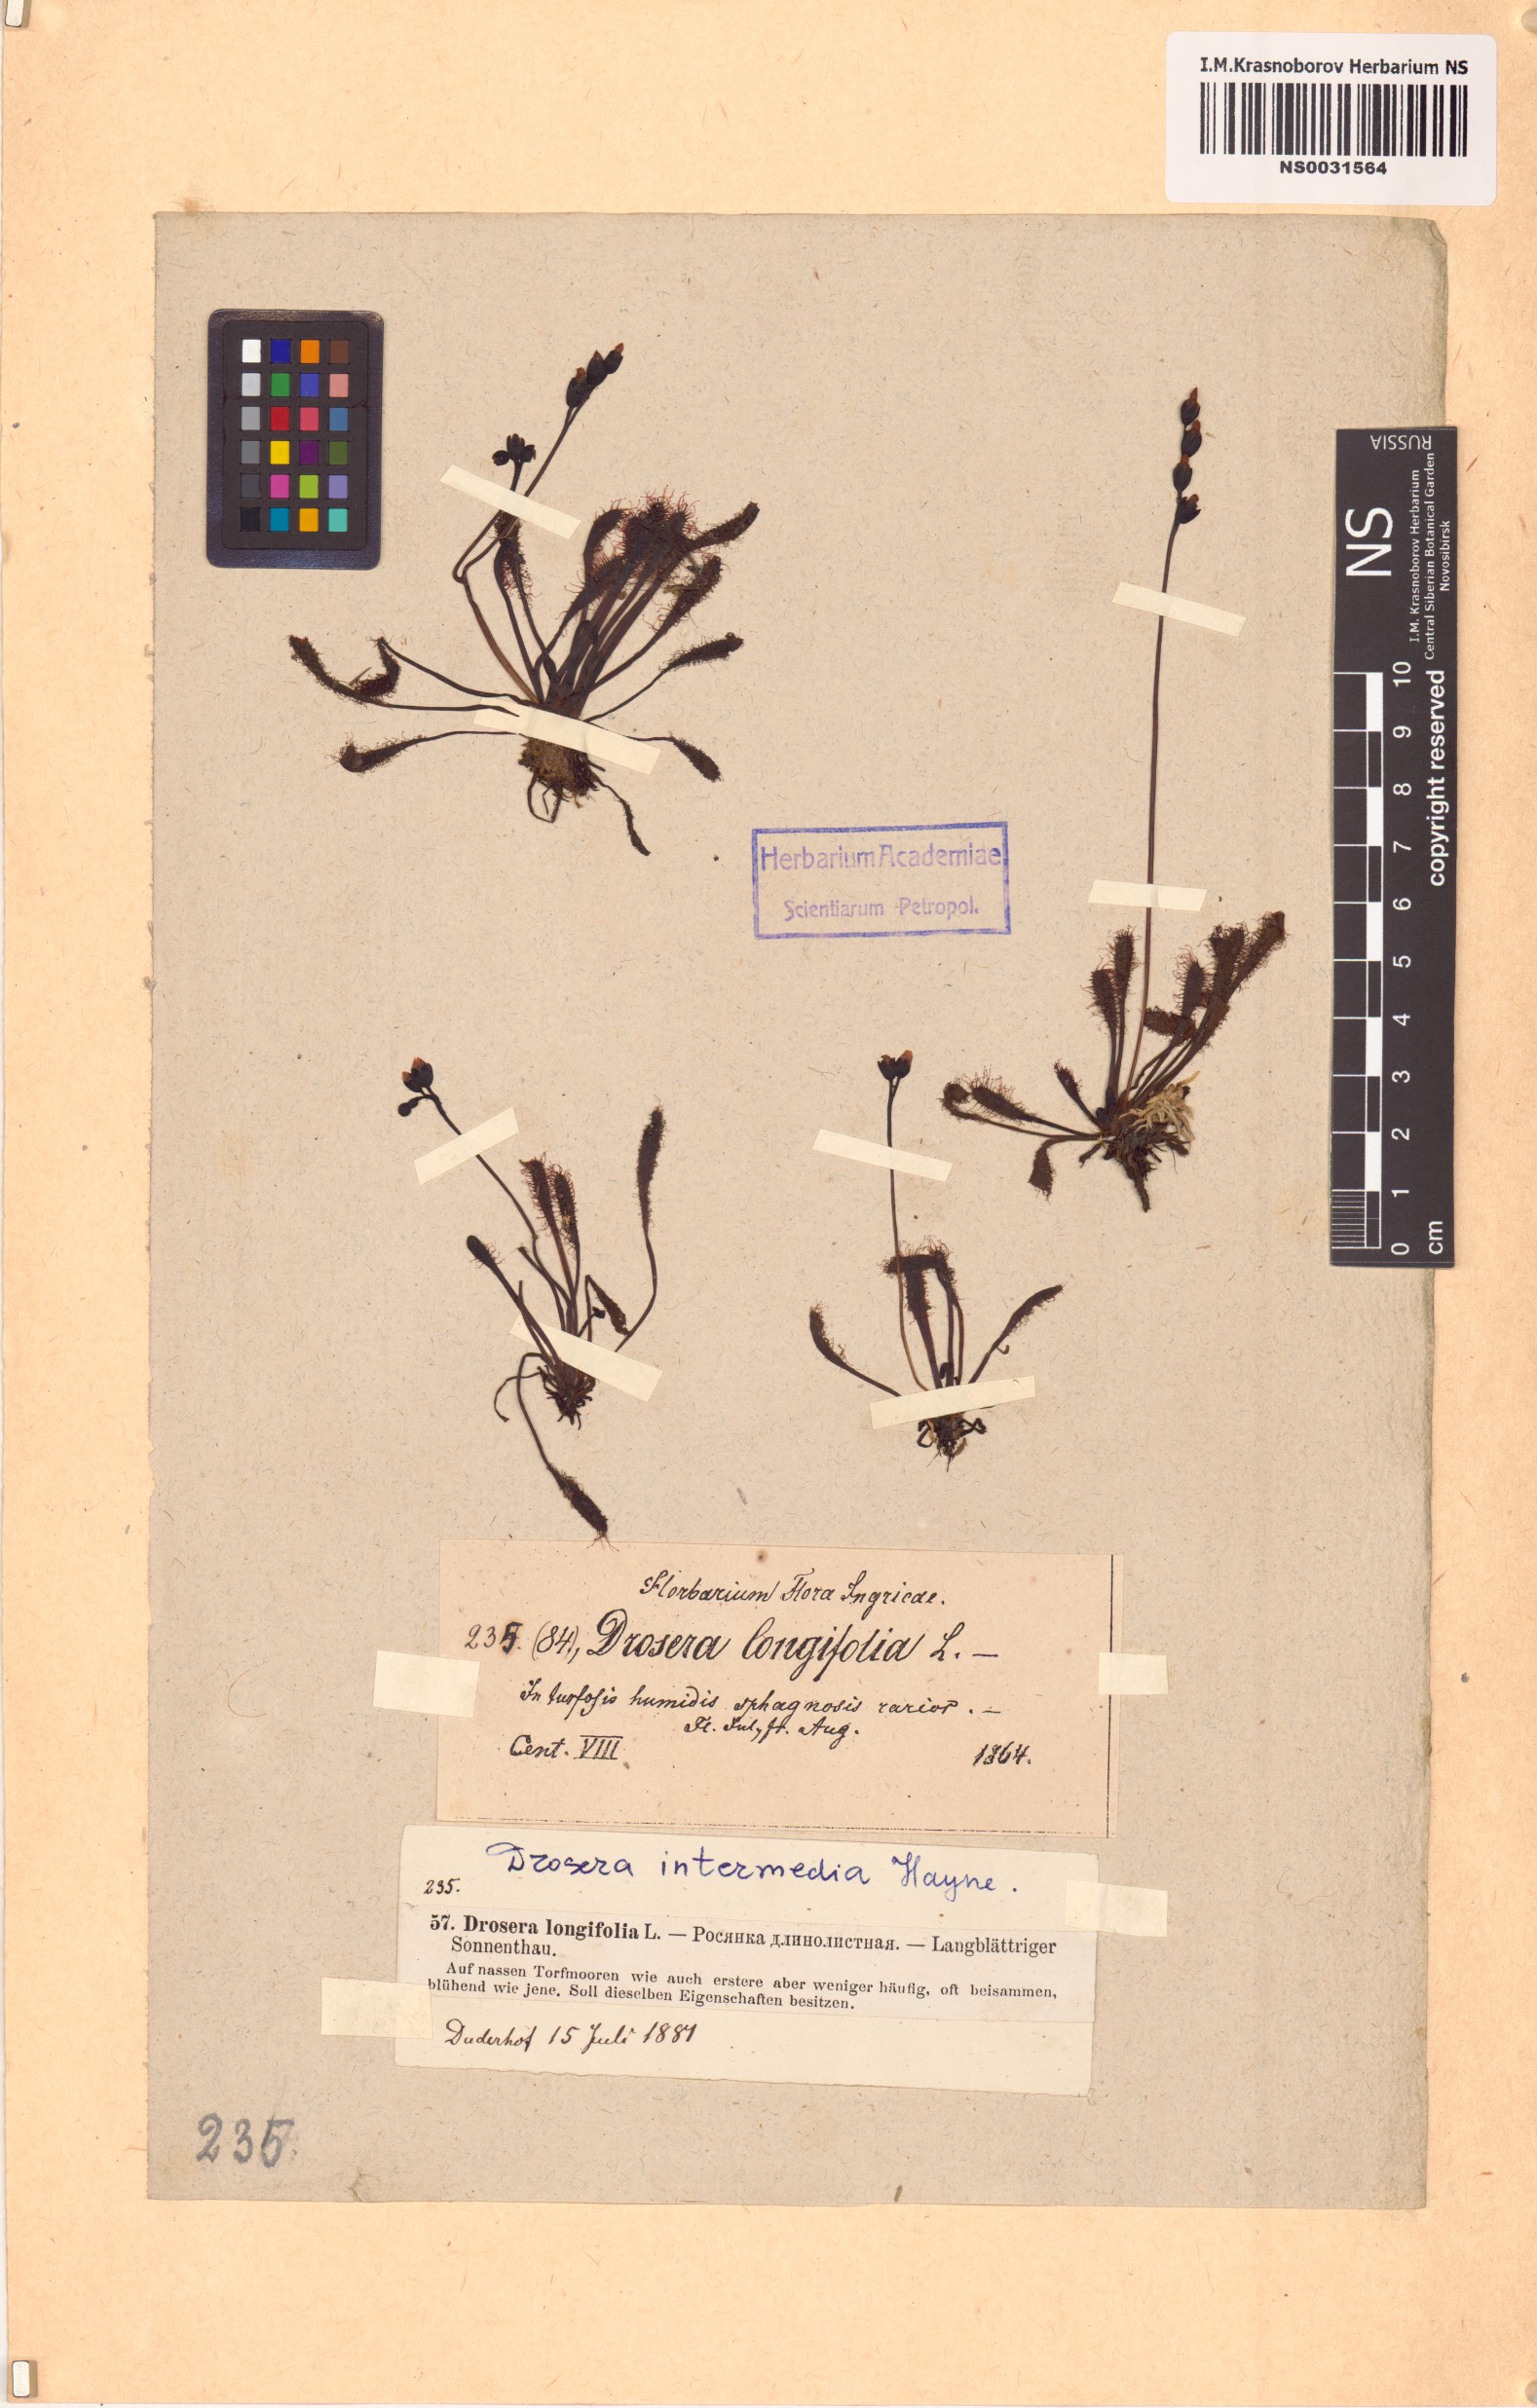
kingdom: Plantae
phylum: Tracheophyta
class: Magnoliopsida
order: Caryophyllales
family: Droseraceae
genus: Drosera
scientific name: Drosera intermedia
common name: Oblong-leaved sundew
